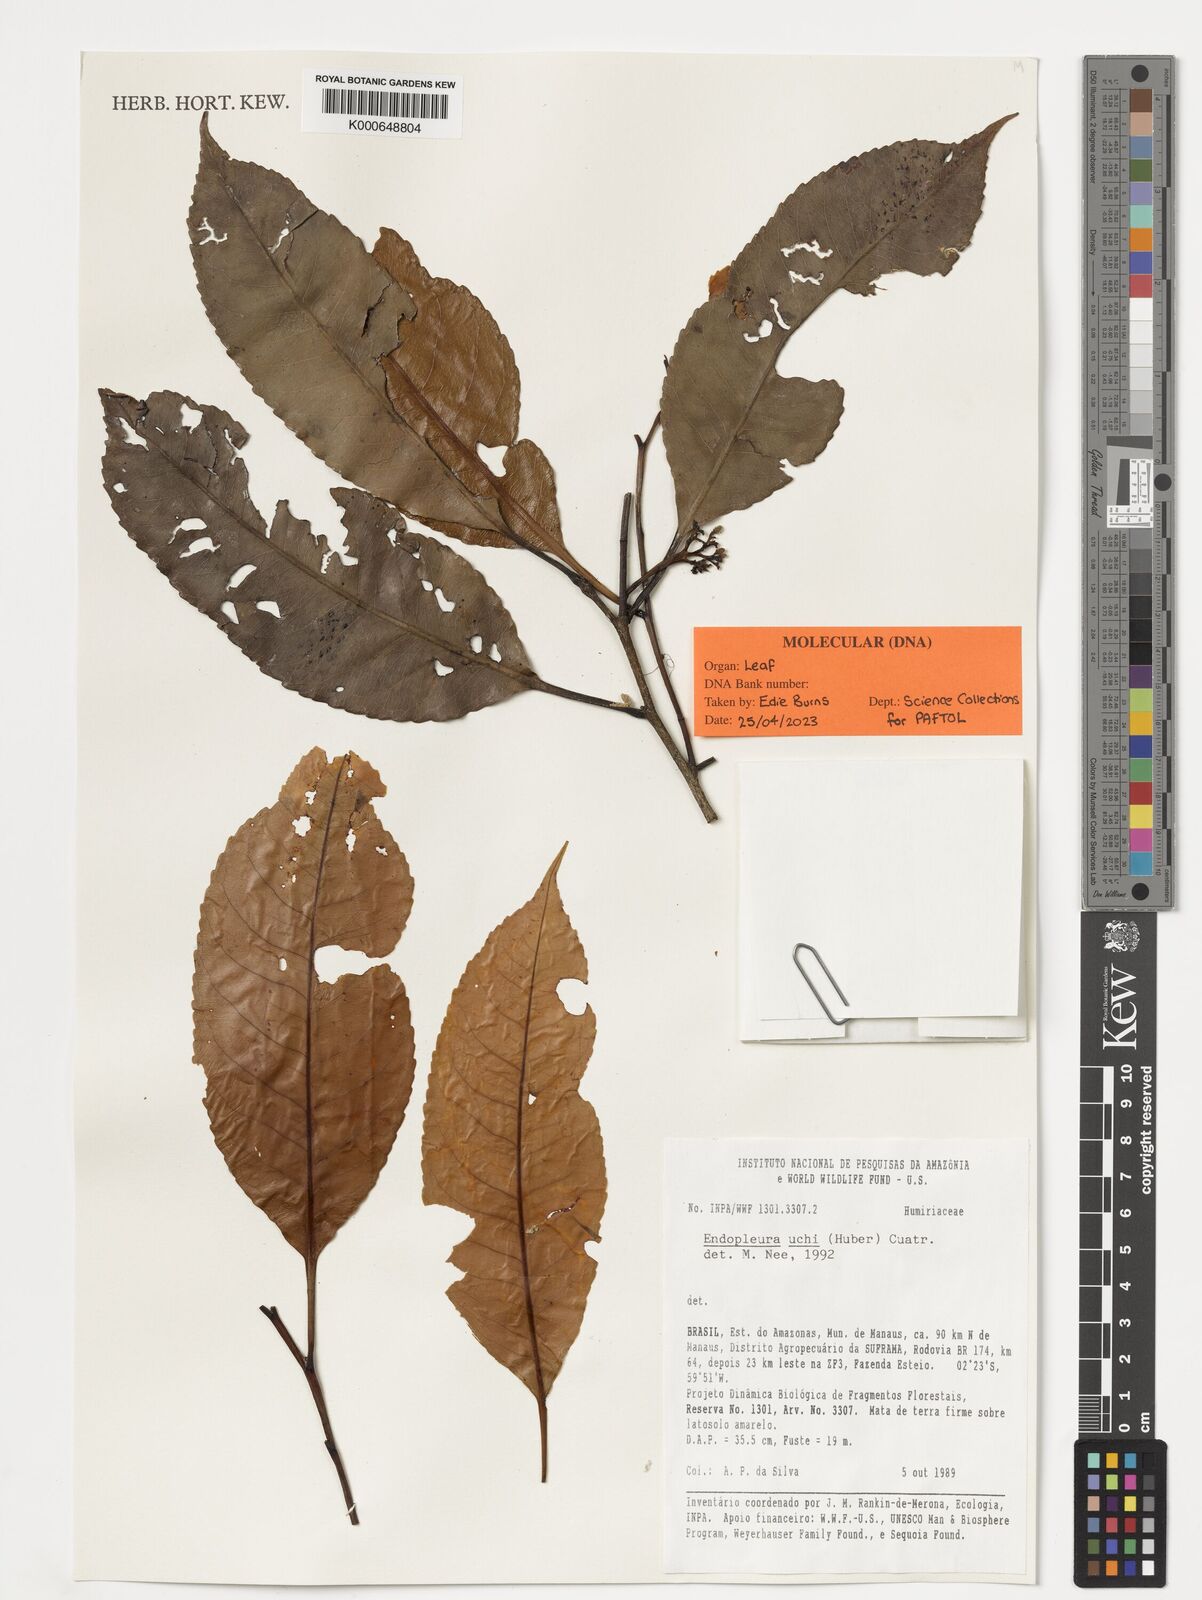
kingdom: Plantae
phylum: Tracheophyta
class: Magnoliopsida
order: Malpighiales
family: Humiriaceae
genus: Endopleura
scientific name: Endopleura uchi
